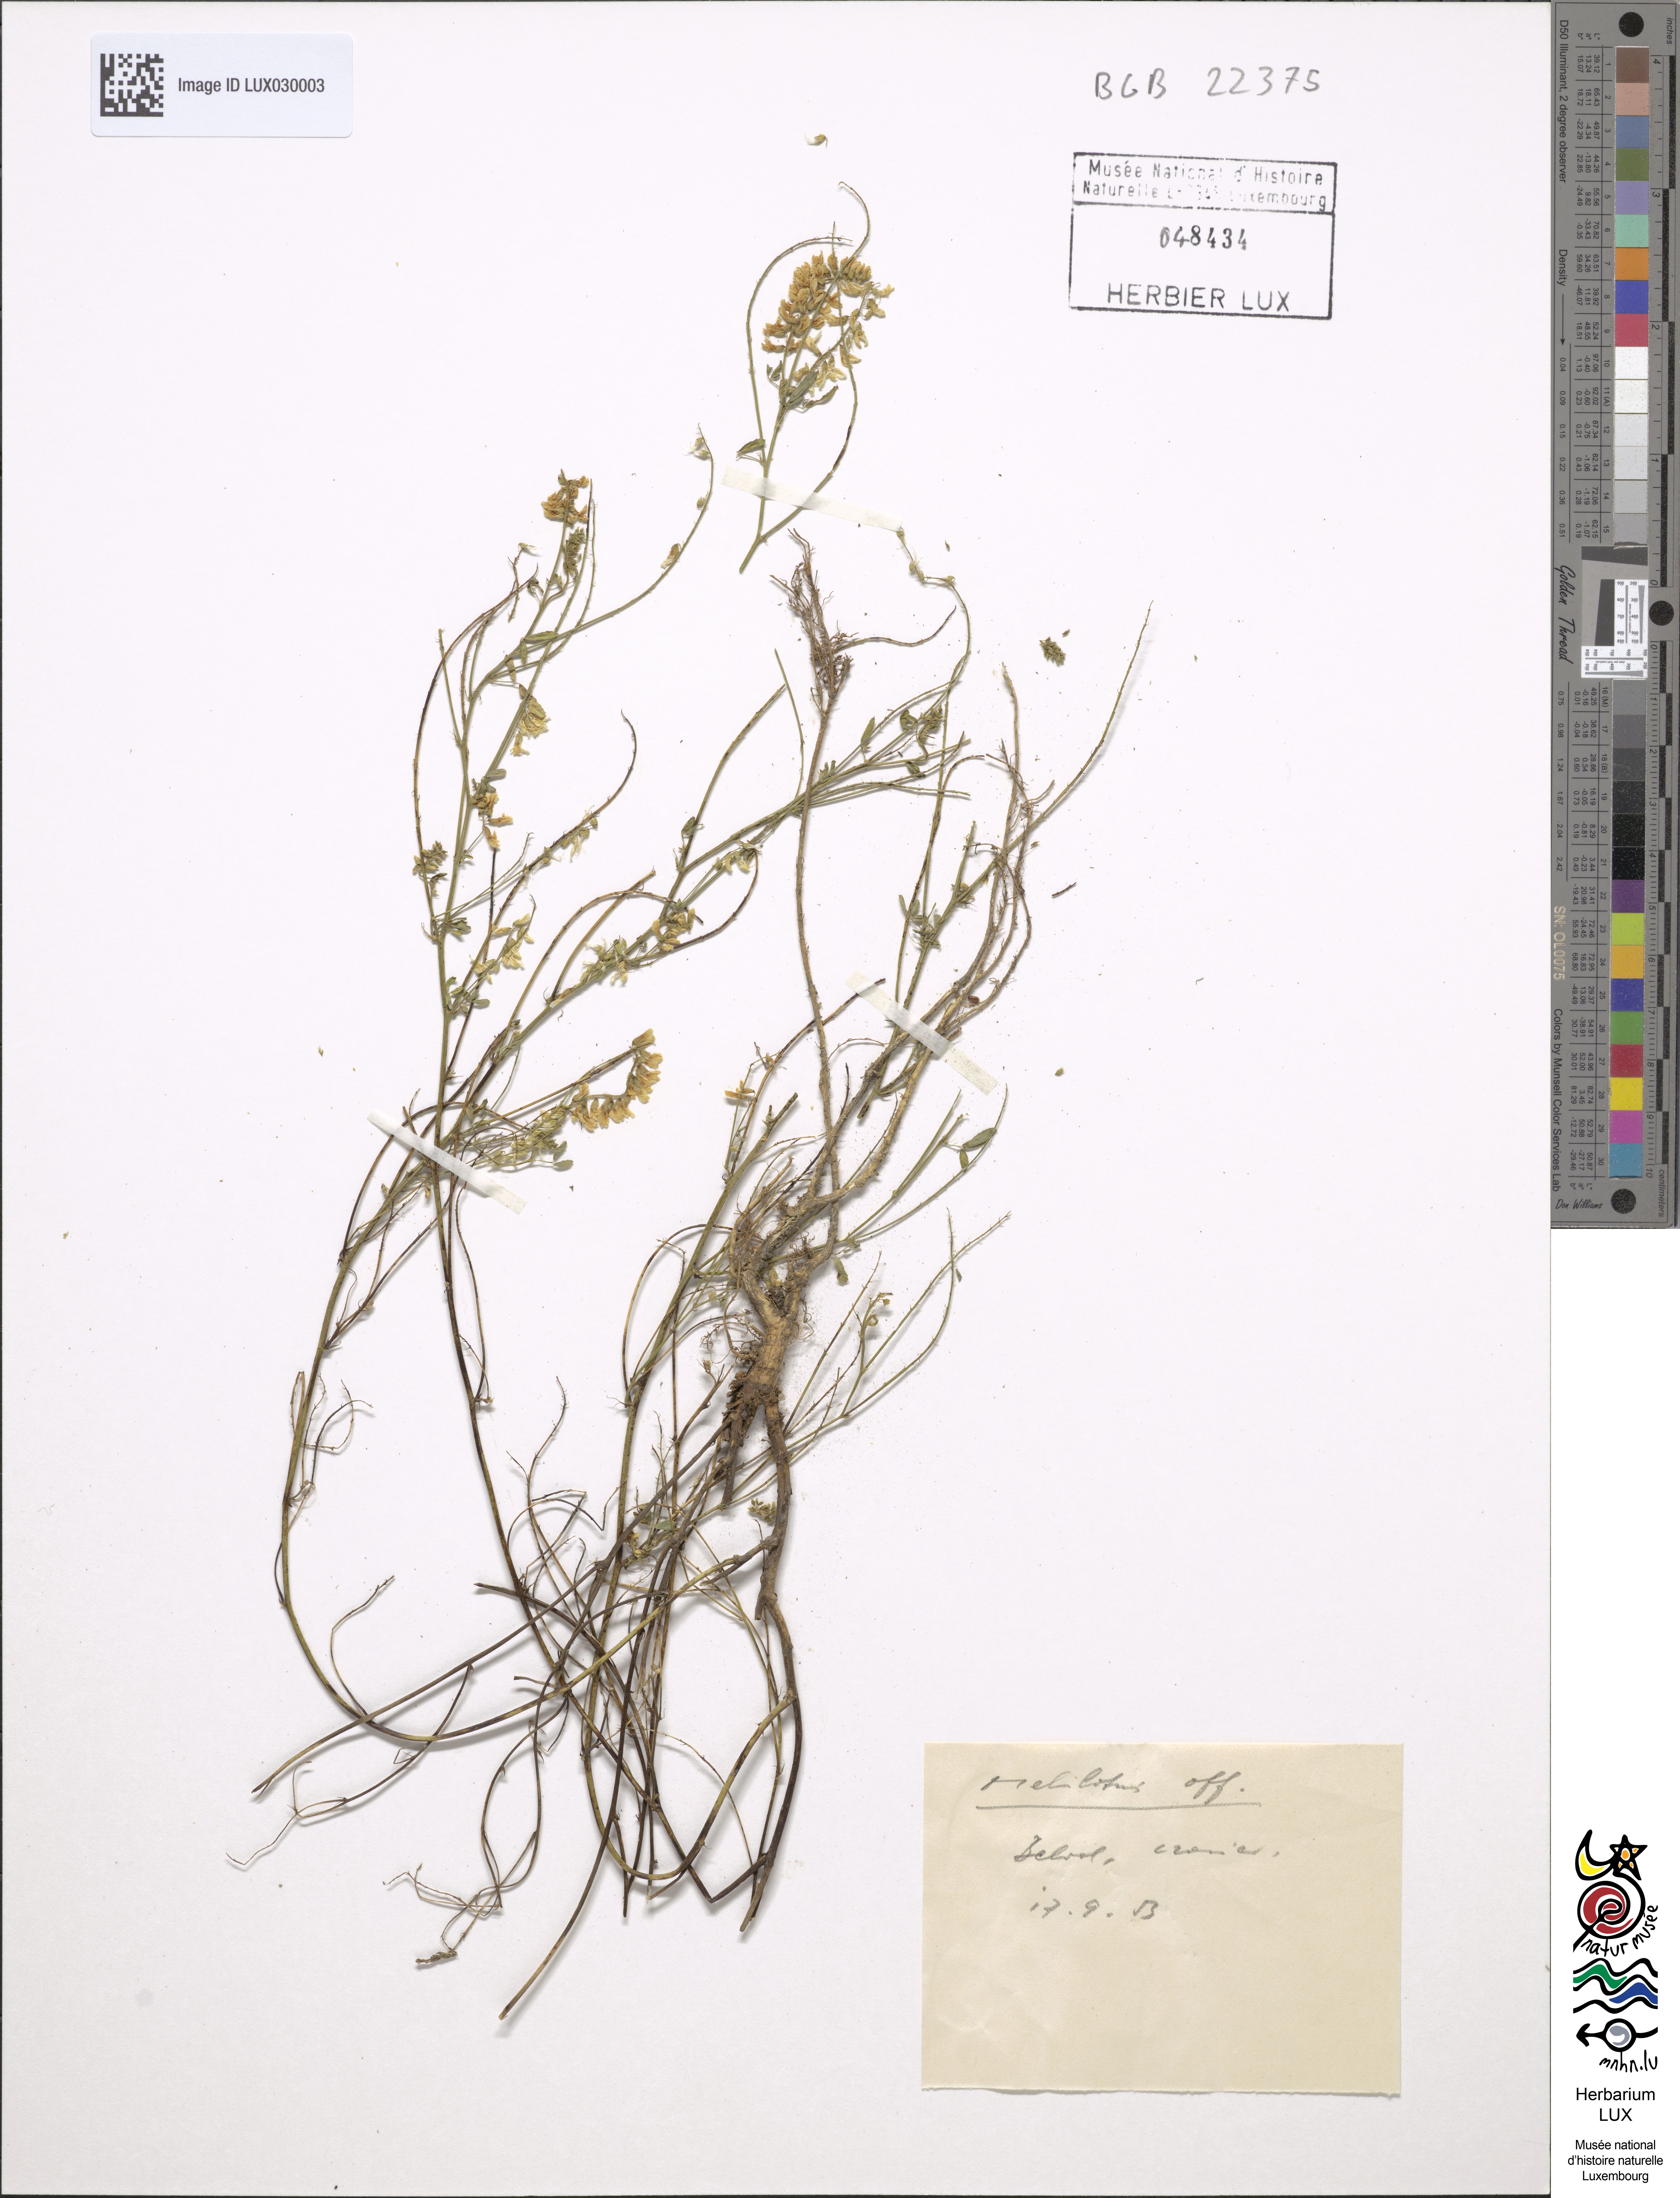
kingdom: Plantae
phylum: Tracheophyta
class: Magnoliopsida
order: Fabales
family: Fabaceae
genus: Melilotus
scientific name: Melilotus officinalis
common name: Sweetclover
